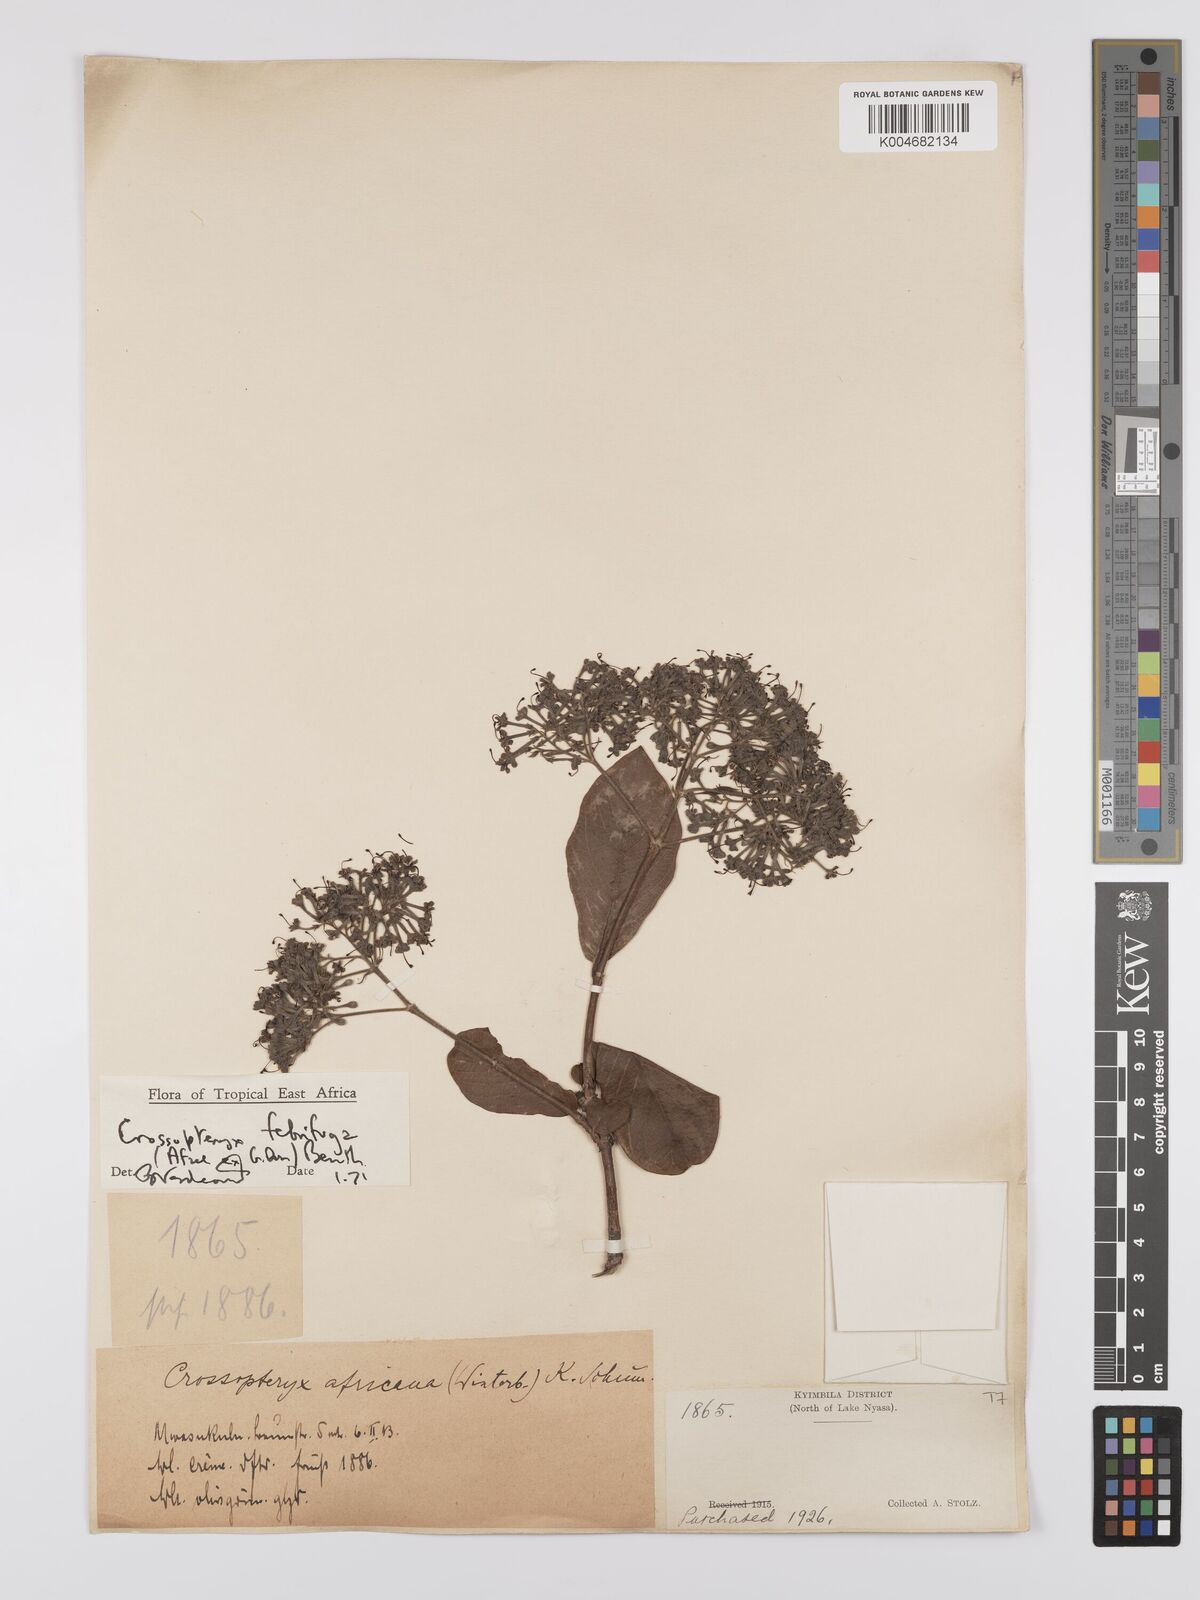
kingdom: Plantae
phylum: Tracheophyta
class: Magnoliopsida
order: Gentianales
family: Rubiaceae
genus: Crossopteryx
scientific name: Crossopteryx febrifuga
